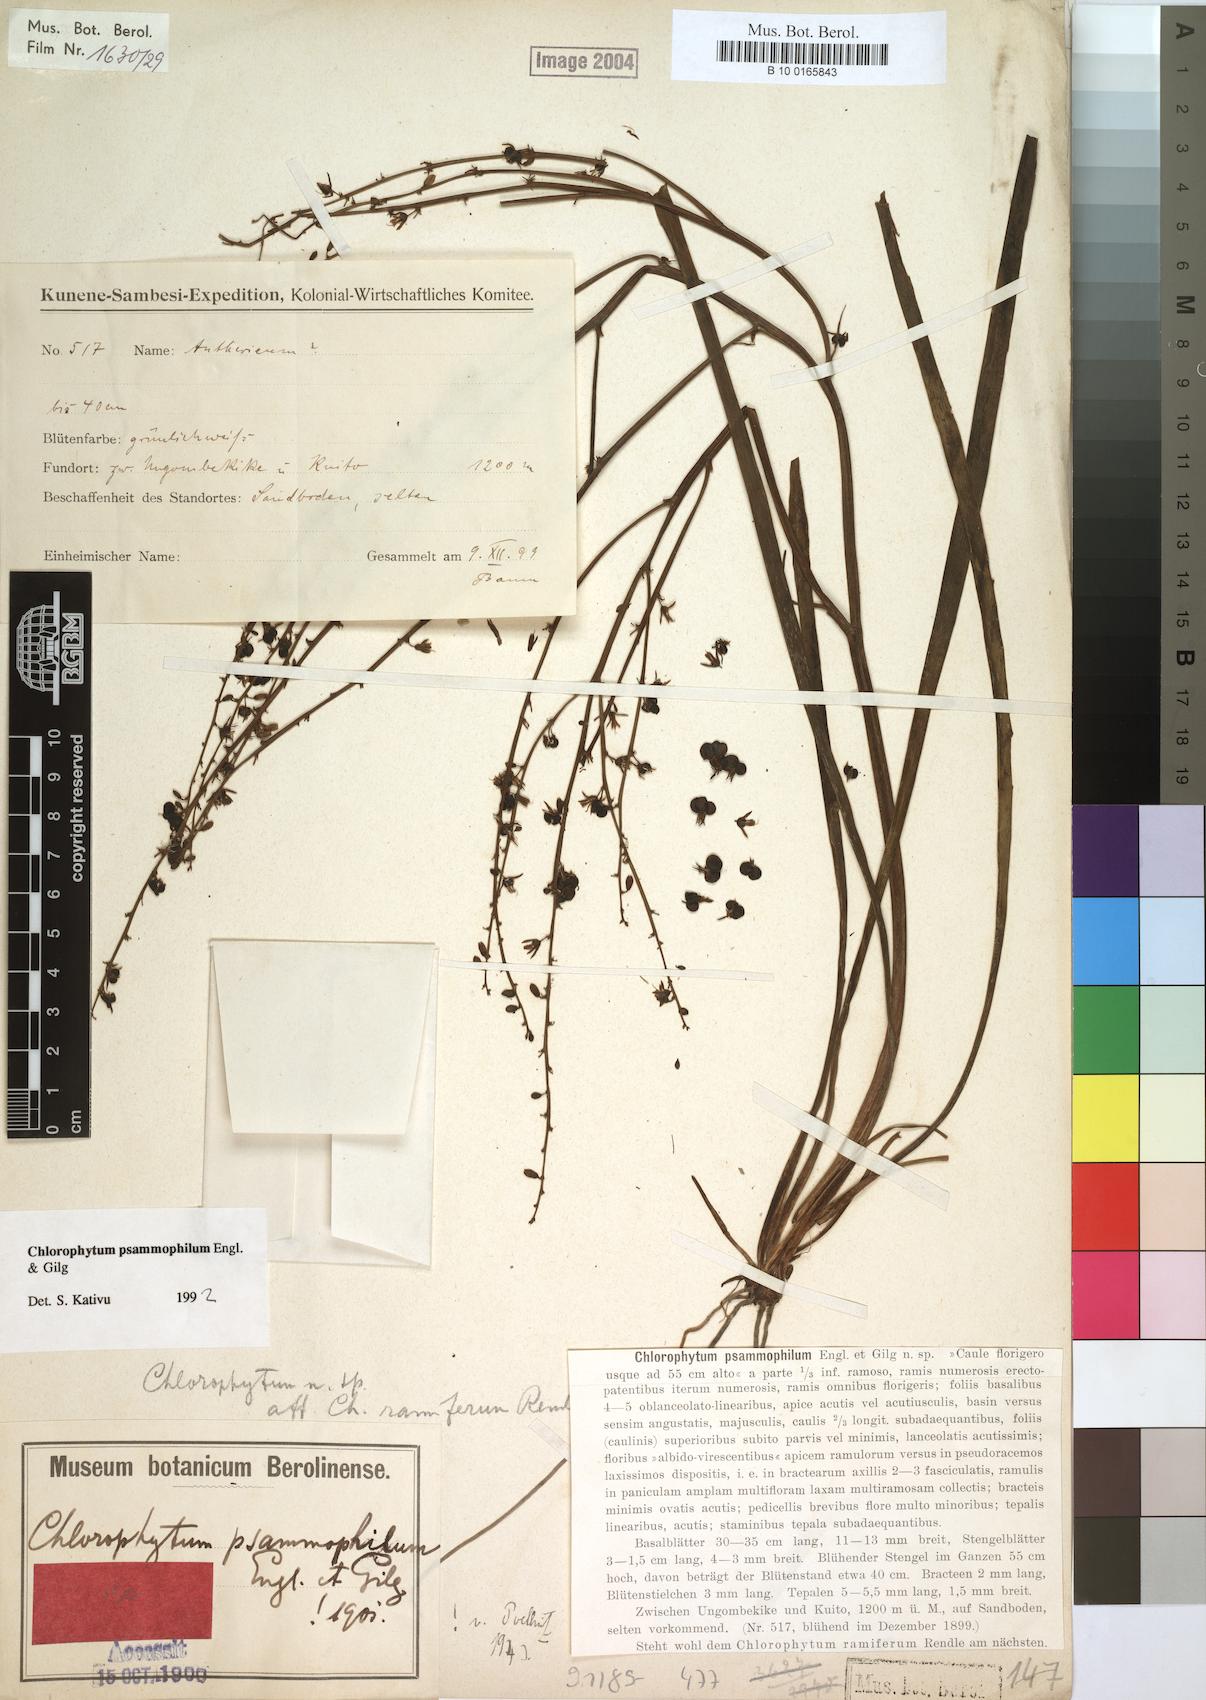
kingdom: Plantae
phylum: Tracheophyta
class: Liliopsida
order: Asparagales
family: Asparagaceae
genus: Chlorophytum
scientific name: Chlorophytum gallabatense
